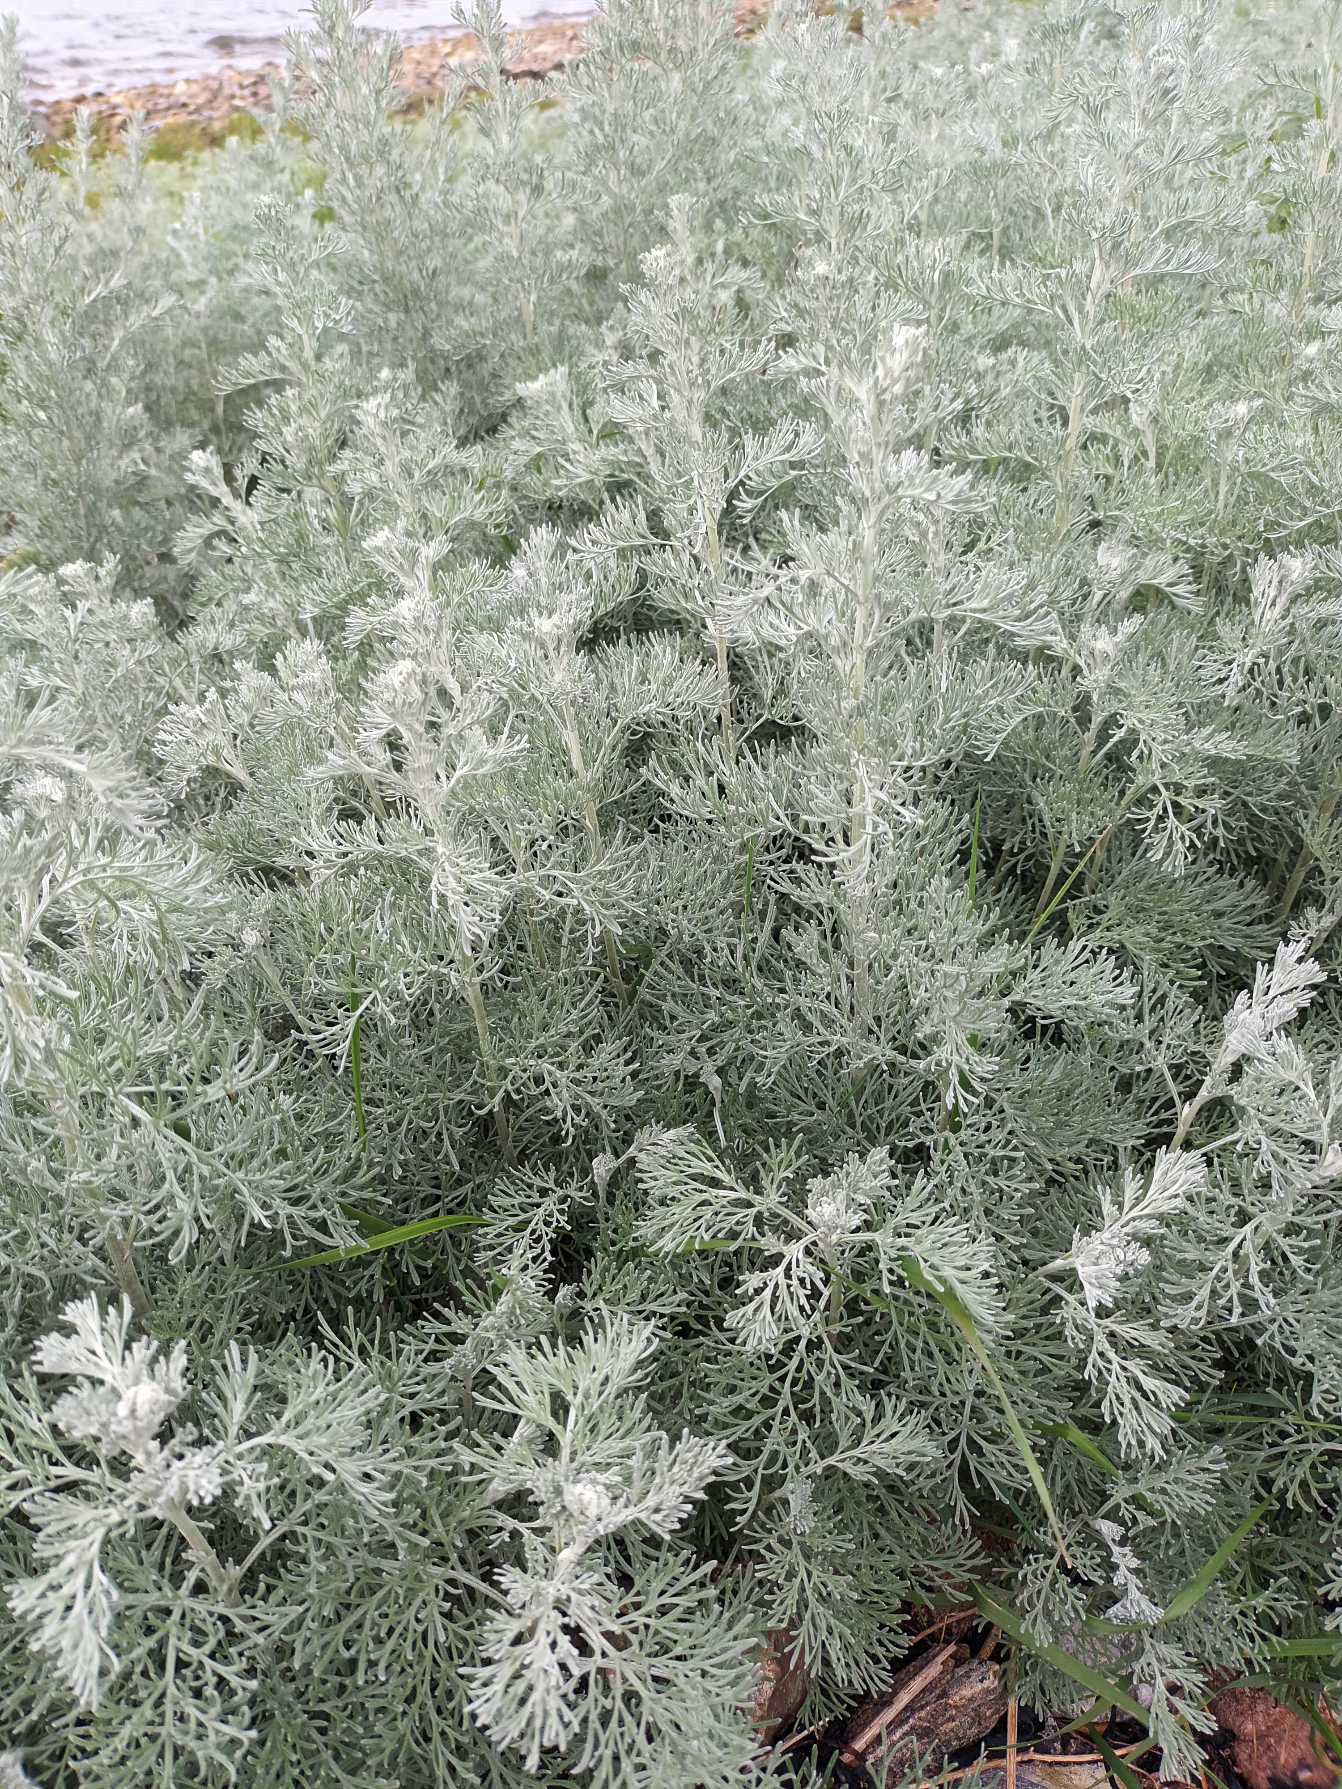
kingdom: Plantae
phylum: Tracheophyta
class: Magnoliopsida
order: Asterales
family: Asteraceae
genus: Artemisia
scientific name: Artemisia maritima
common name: Strandmalurt
